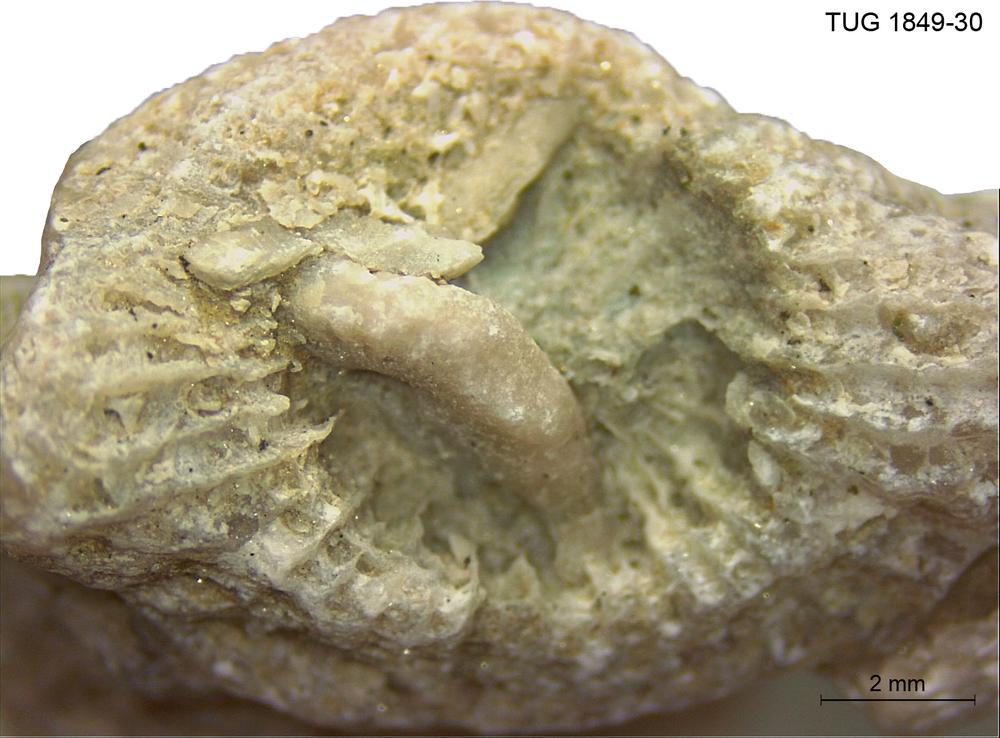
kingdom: Animalia
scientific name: Animalia
